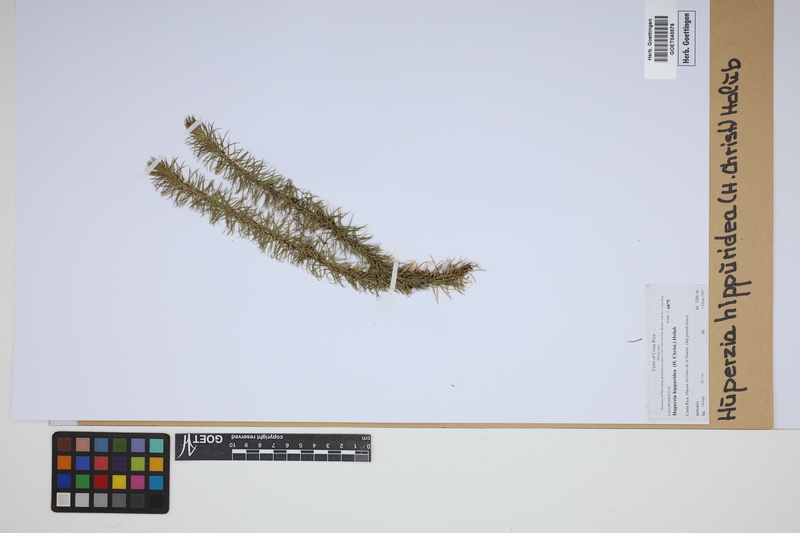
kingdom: Plantae
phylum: Tracheophyta
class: Lycopodiopsida
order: Lycopodiales
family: Lycopodiaceae
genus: Phlegmariurus
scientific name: Phlegmariurus hippurideus
